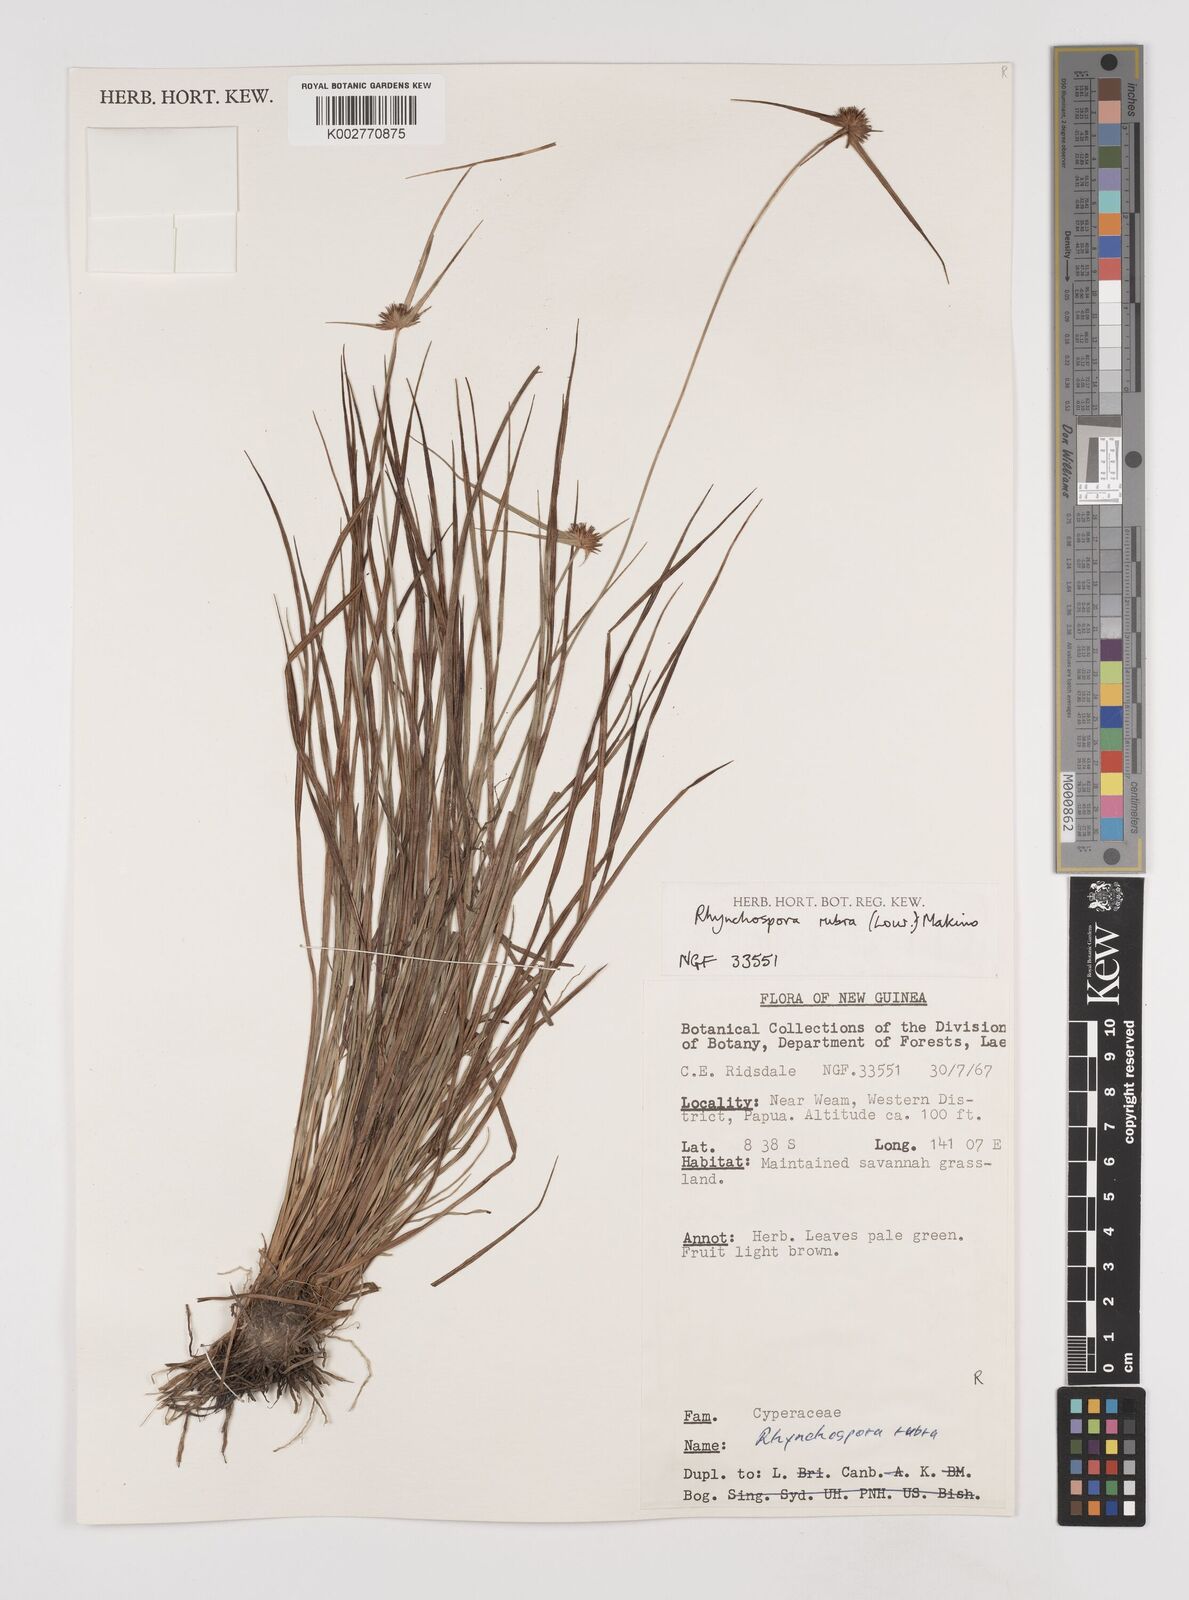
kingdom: Plantae
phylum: Tracheophyta
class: Liliopsida
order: Poales
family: Cyperaceae
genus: Rhynchospora
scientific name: Rhynchospora rubra
